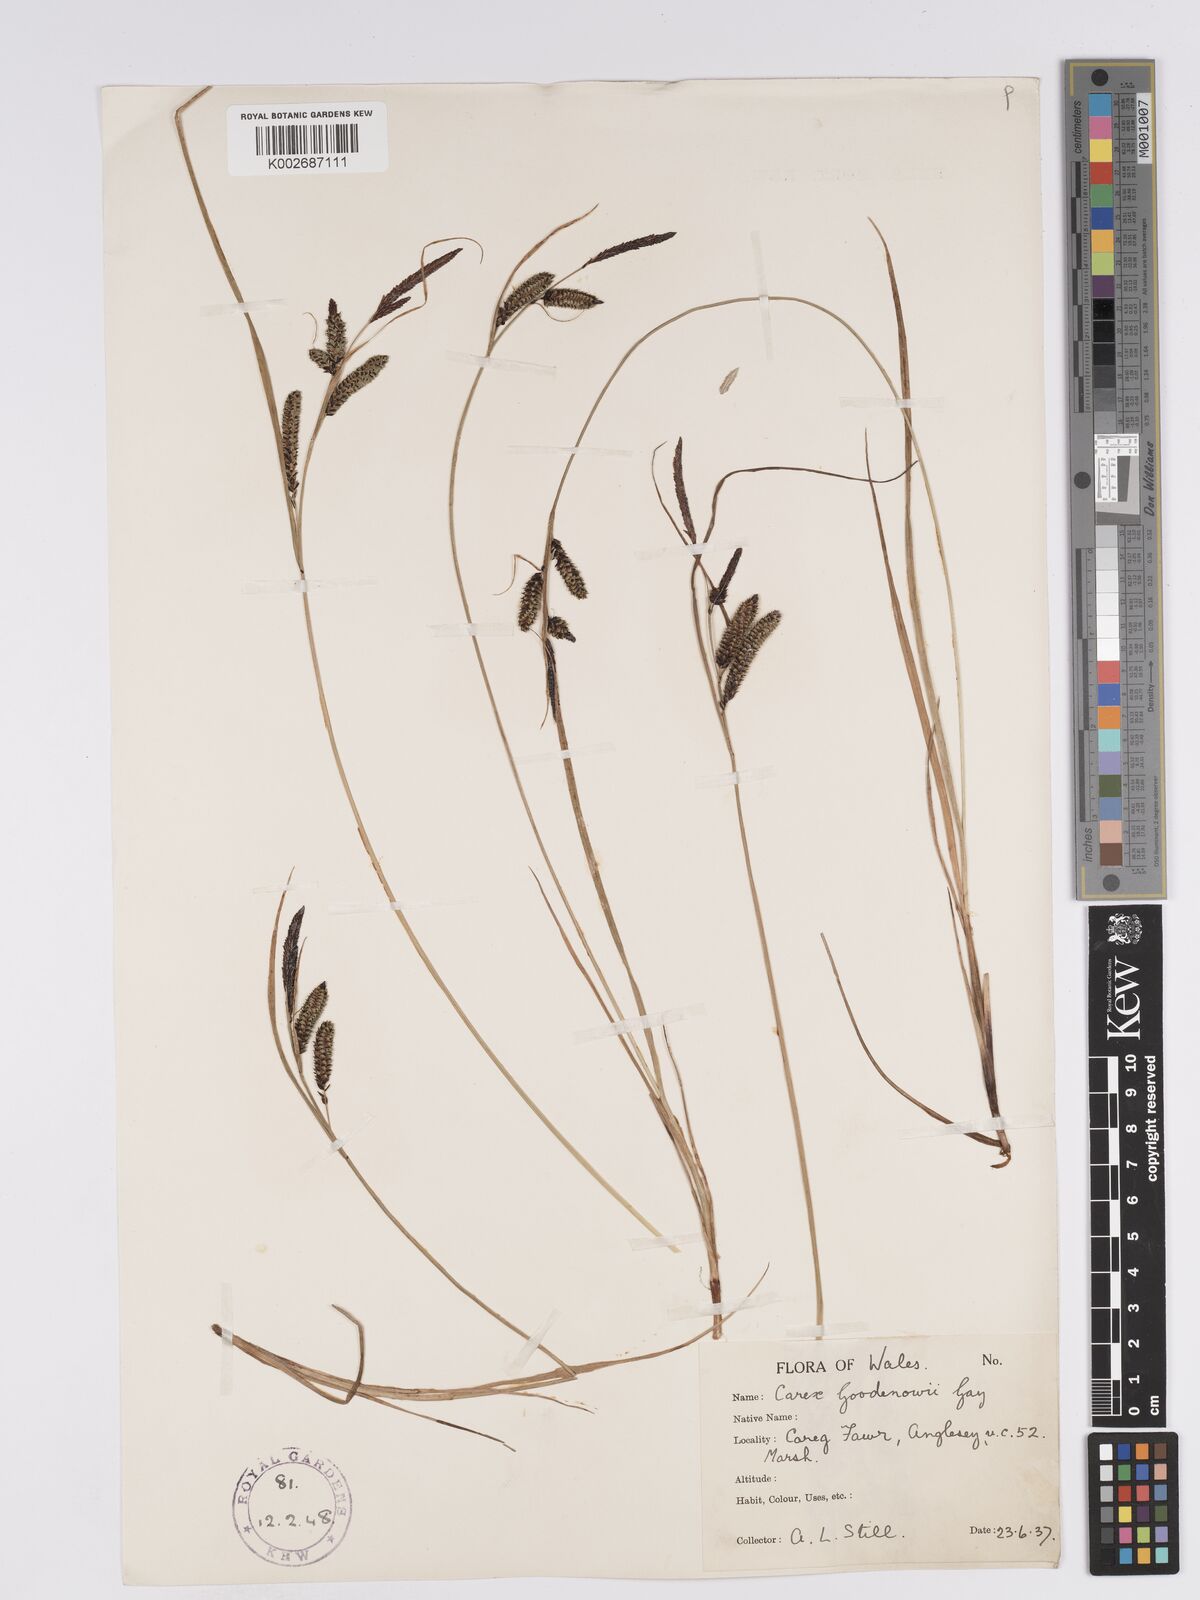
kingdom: Plantae
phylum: Tracheophyta
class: Liliopsida
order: Poales
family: Cyperaceae
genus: Carex
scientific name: Carex nigra
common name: Common sedge
